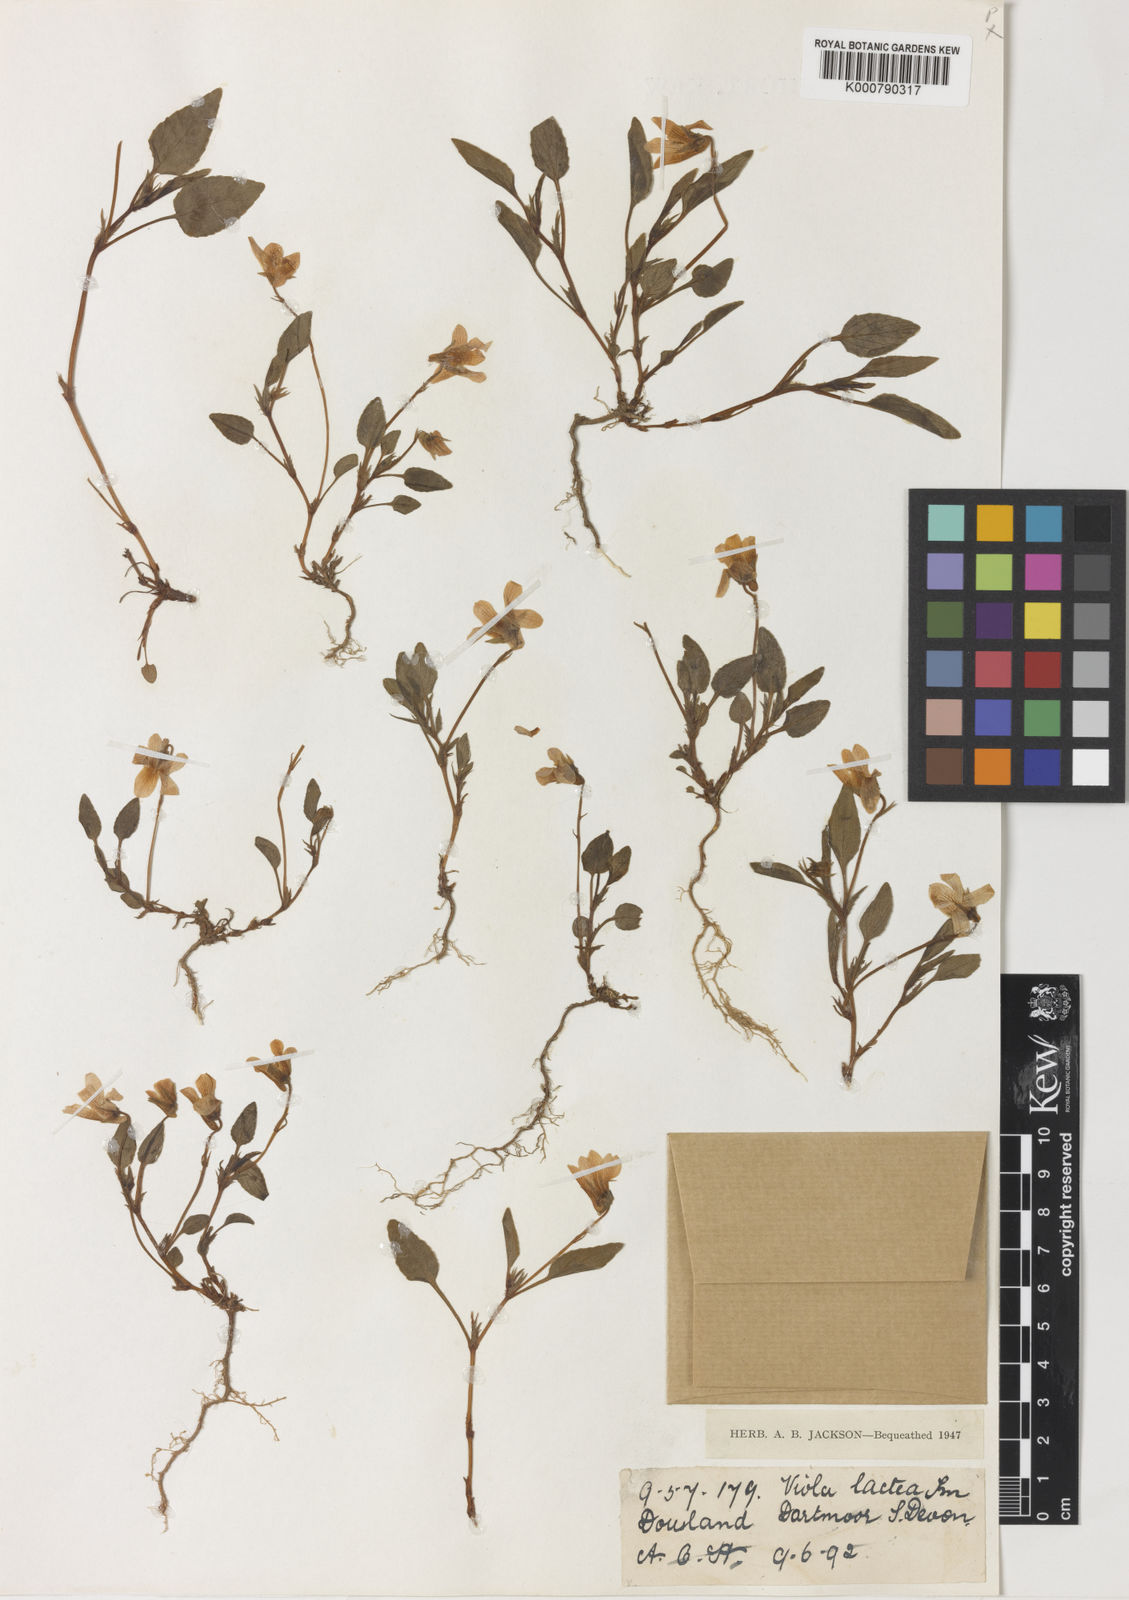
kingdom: Plantae
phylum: Tracheophyta
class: Magnoliopsida
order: Malpighiales
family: Violaceae
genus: Viola
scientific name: Viola lactea
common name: Pale dog-violet
